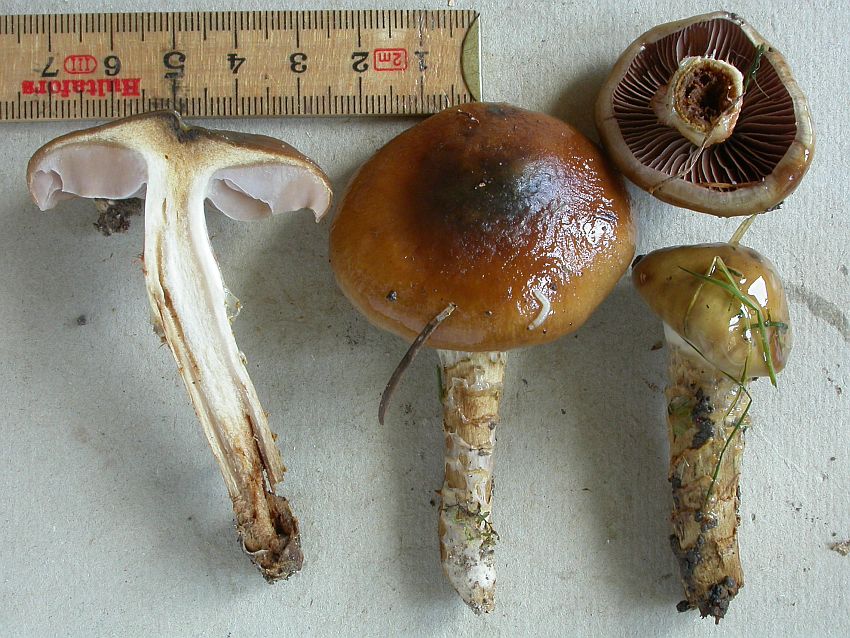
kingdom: Fungi
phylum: Basidiomycota
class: Agaricomycetes
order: Agaricales
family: Cortinariaceae
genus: Cortinarius
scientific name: Cortinarius trivialis
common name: brunslimet slørhat
